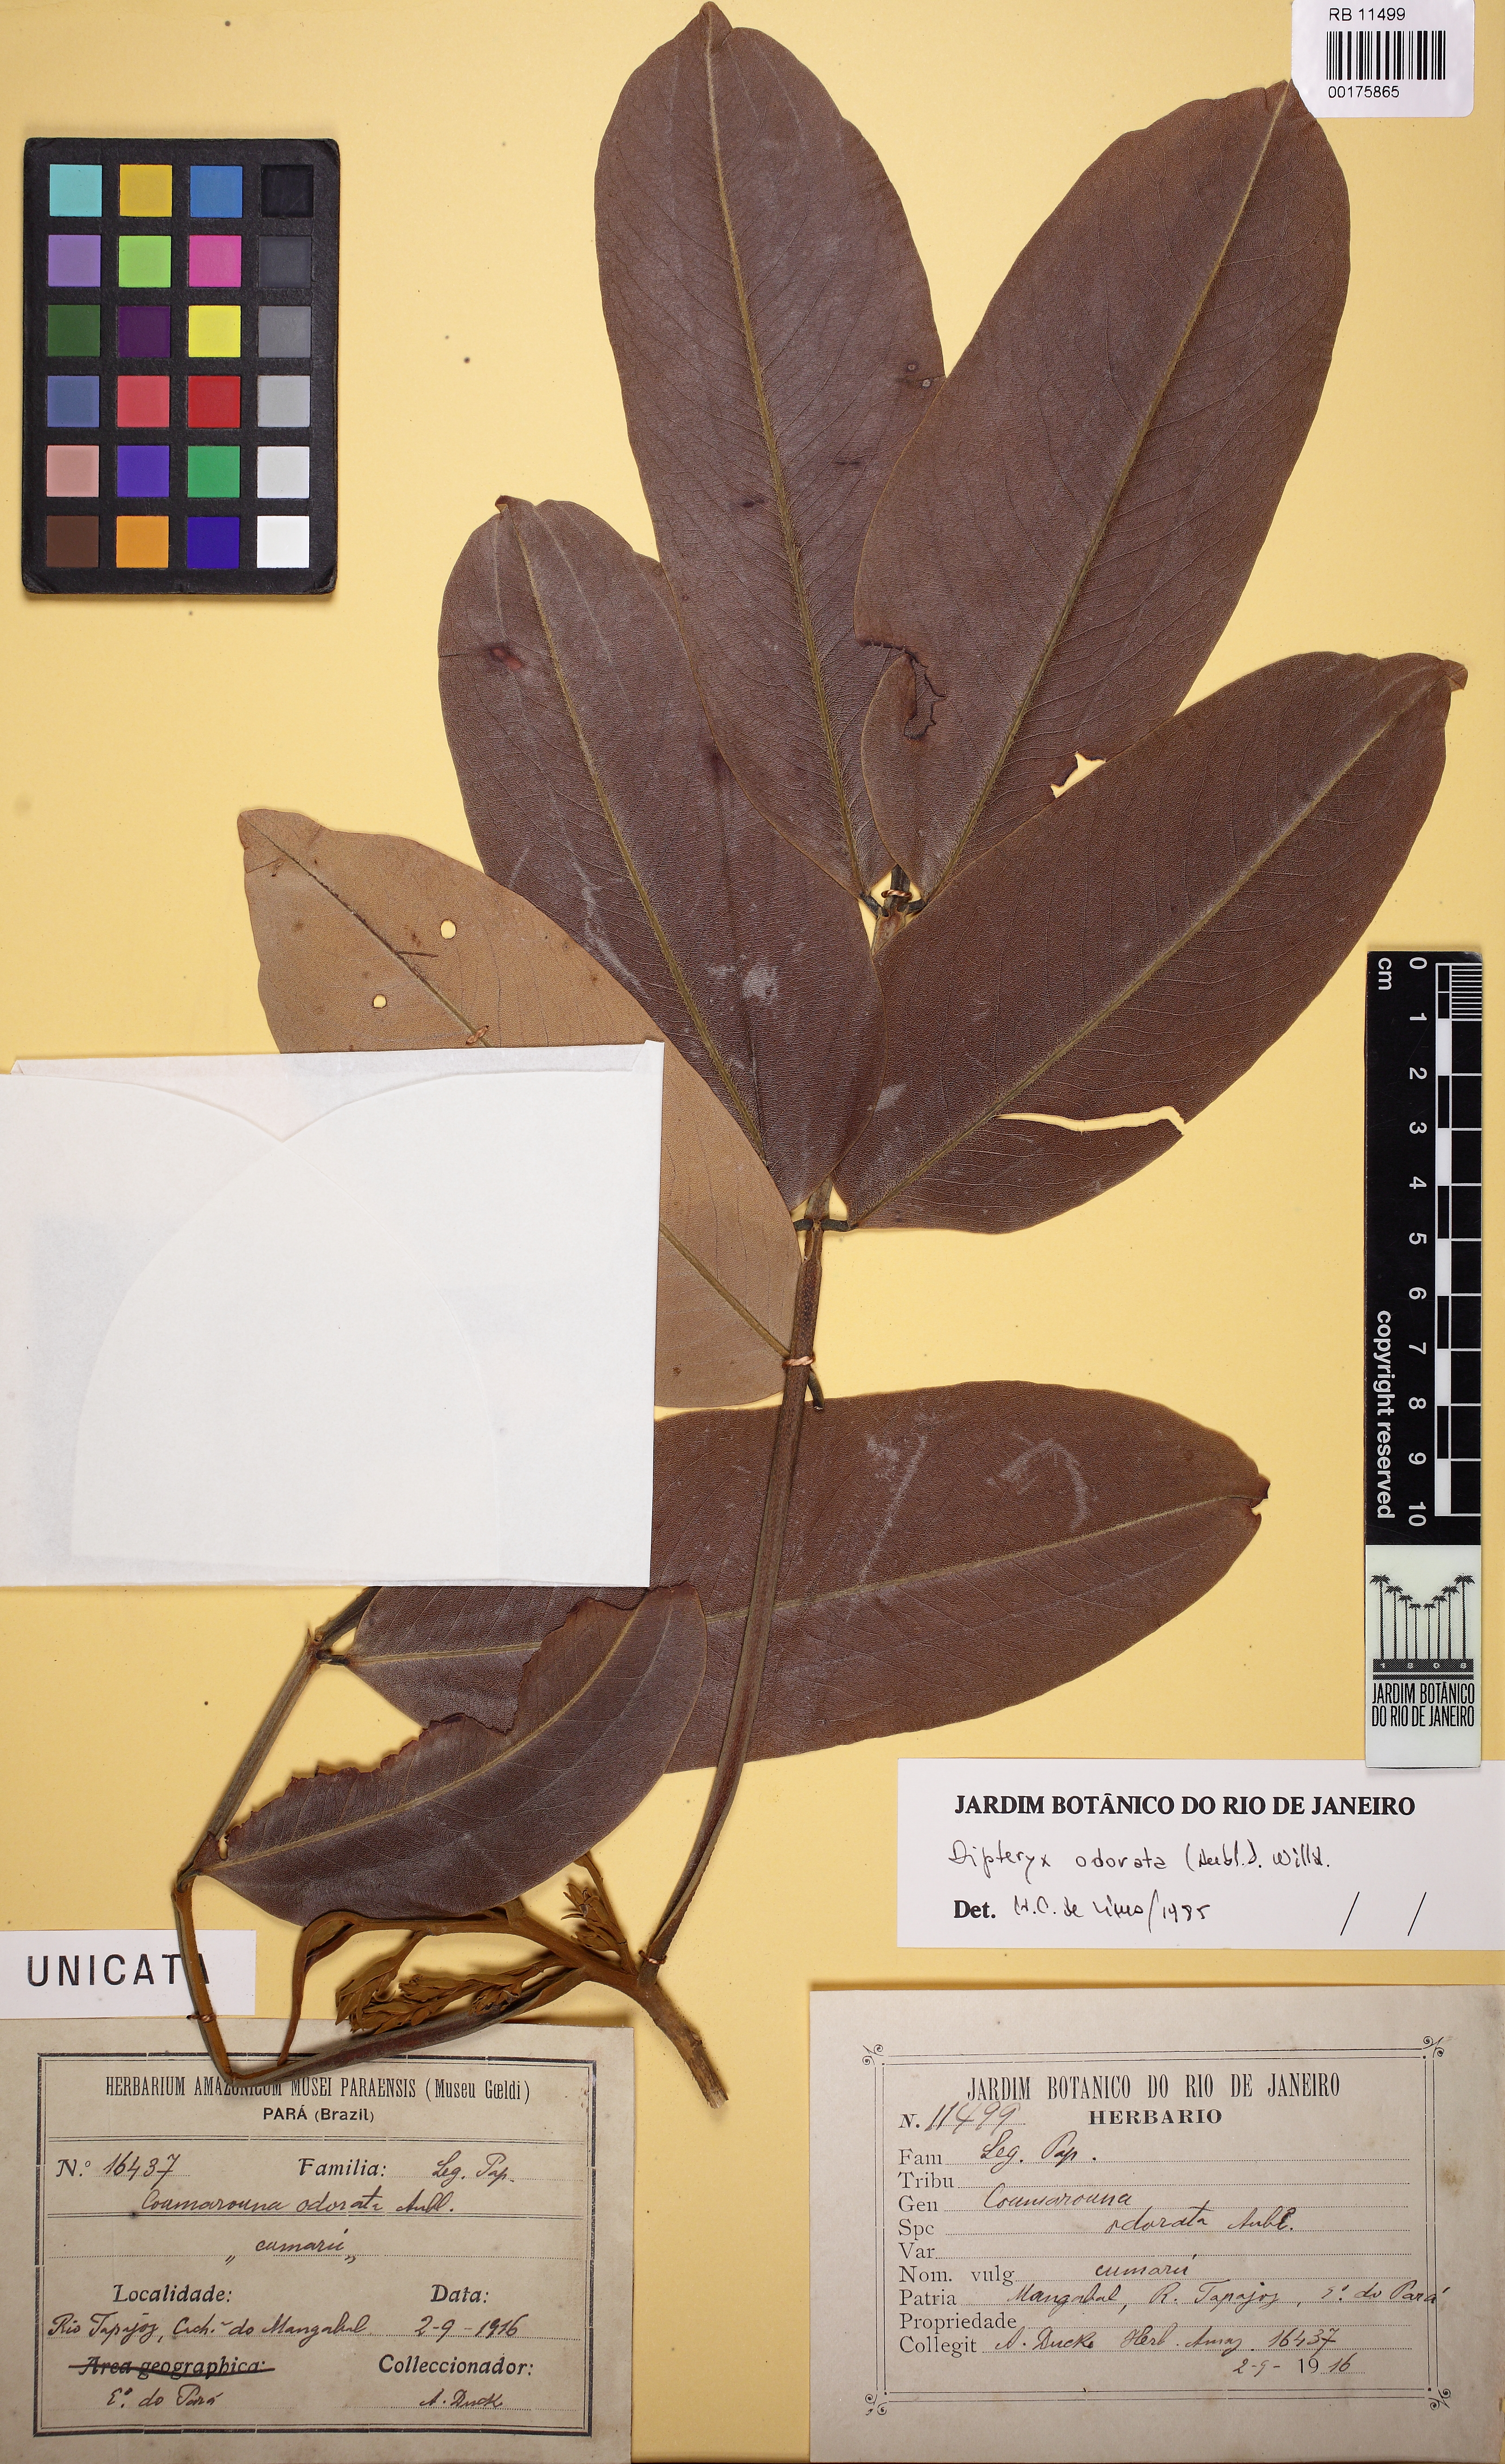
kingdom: Plantae
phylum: Tracheophyta
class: Magnoliopsida
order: Fabales
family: Fabaceae
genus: Dipteryx
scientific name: Dipteryx odorata
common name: Tonka
